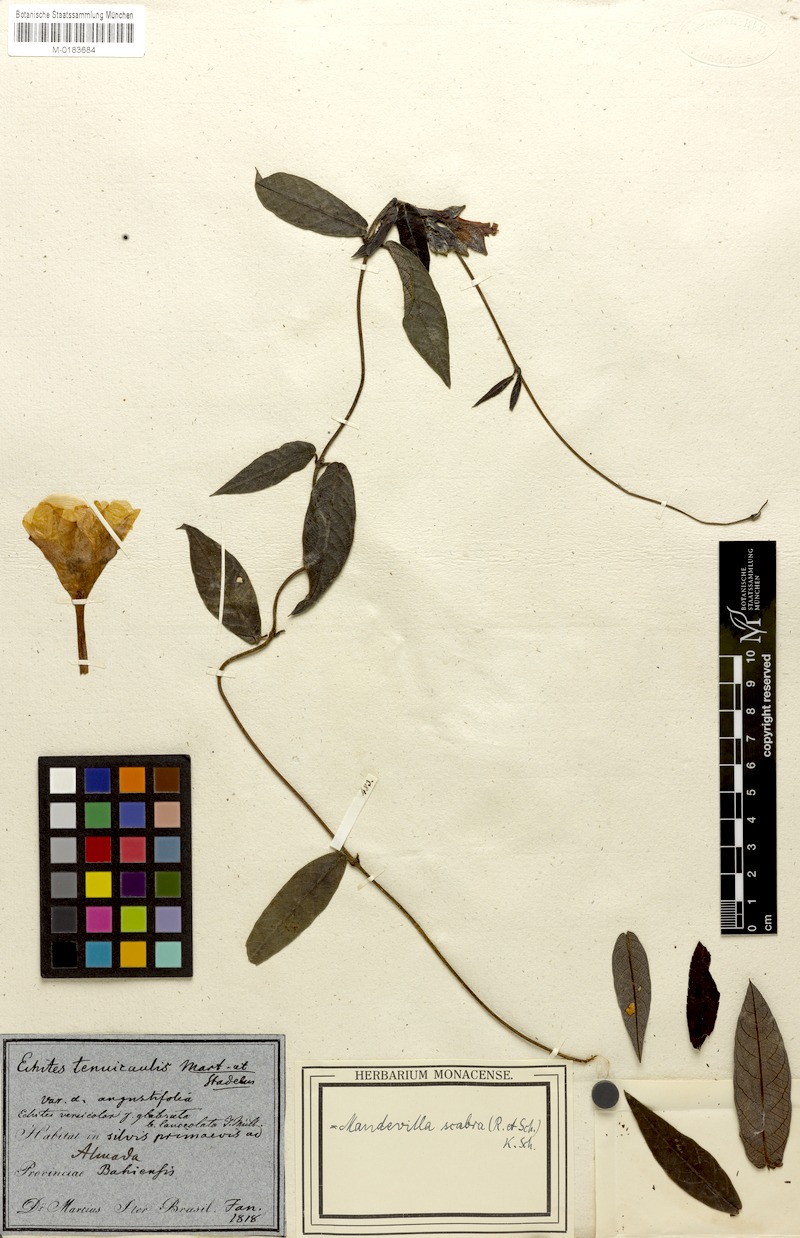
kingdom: Plantae
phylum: Tracheophyta
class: Magnoliopsida
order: Gentianales
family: Apocynaceae
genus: Mandevilla
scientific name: Mandevilla scabra
